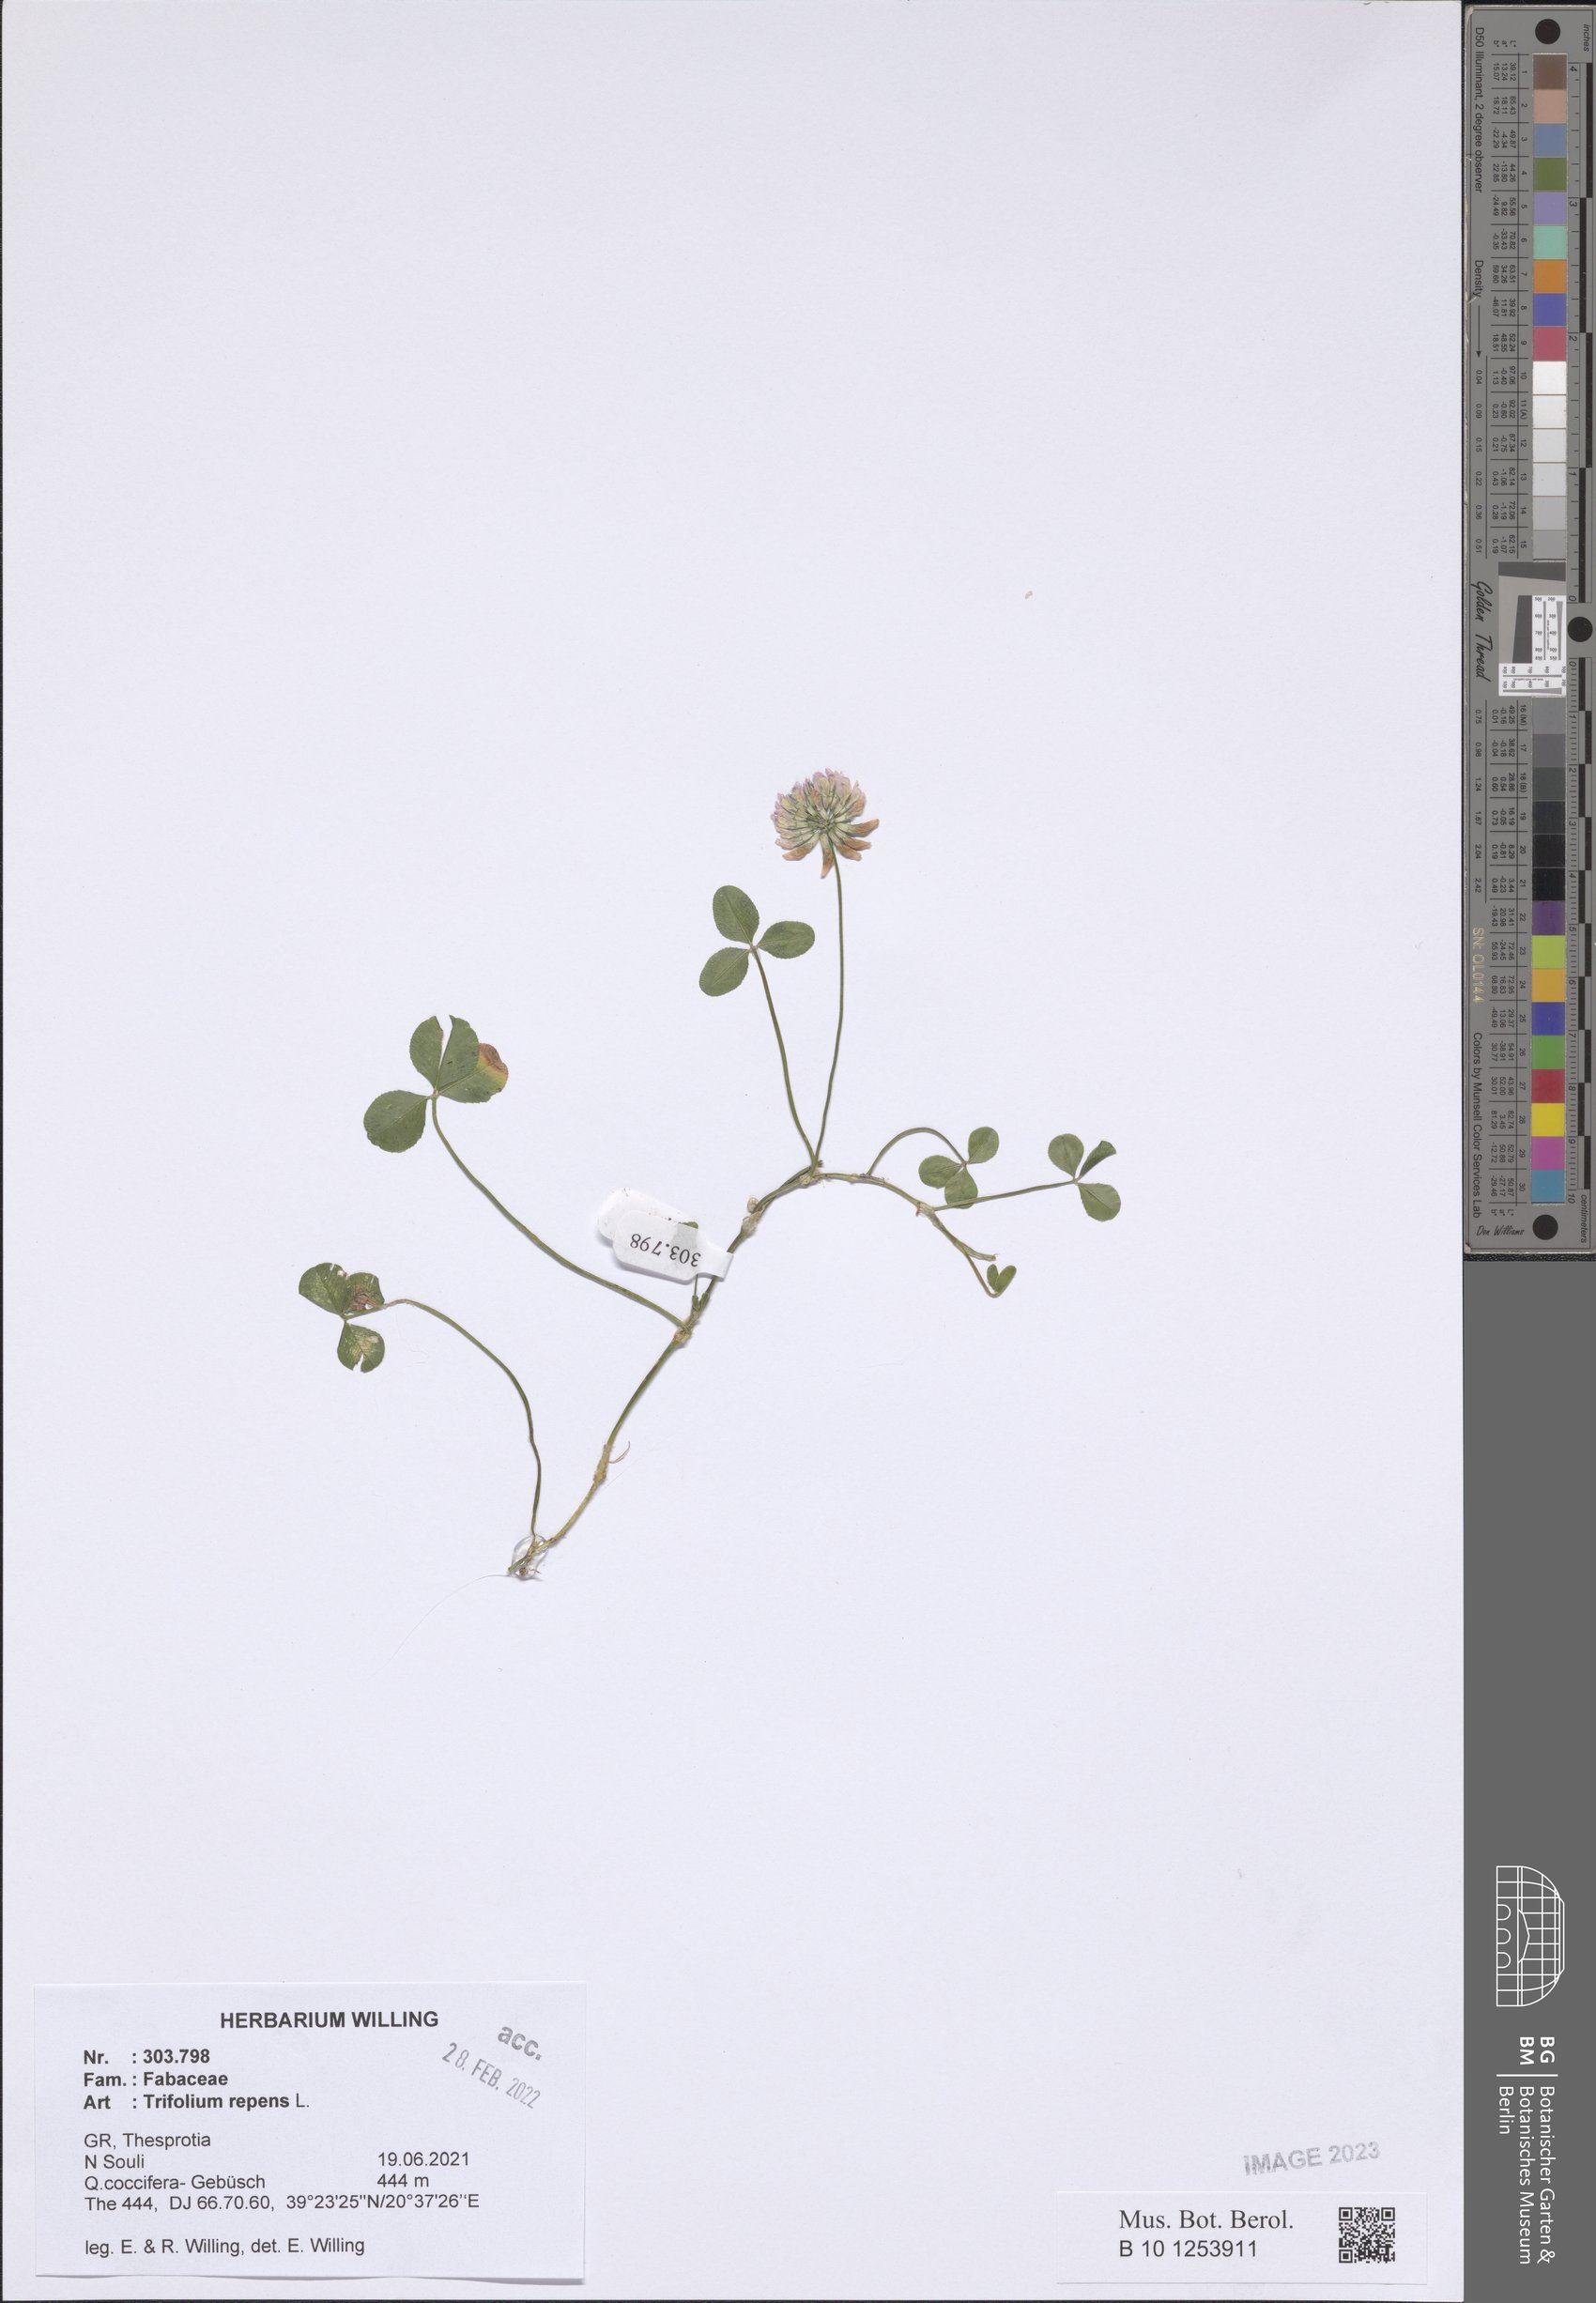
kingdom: Plantae
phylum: Tracheophyta
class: Magnoliopsida
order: Fabales
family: Fabaceae
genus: Trifolium
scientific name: Trifolium repens
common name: White clover
